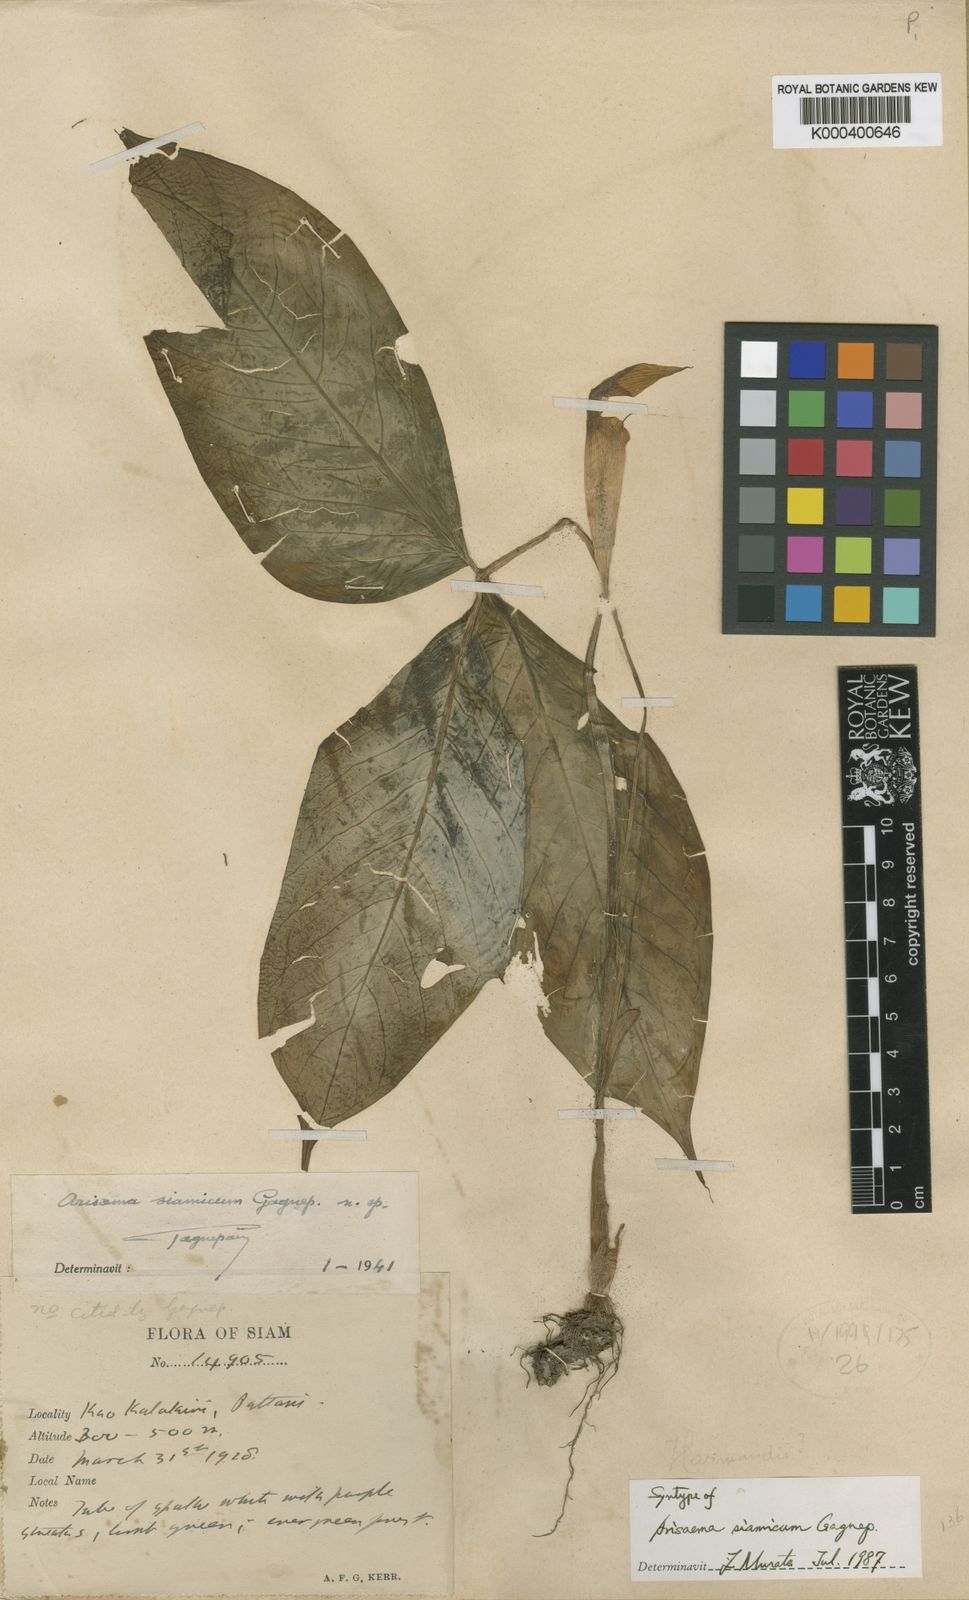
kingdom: Plantae
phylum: Tracheophyta
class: Liliopsida
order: Alismatales
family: Araceae
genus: Arisaema
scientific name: Arisaema siamicum
